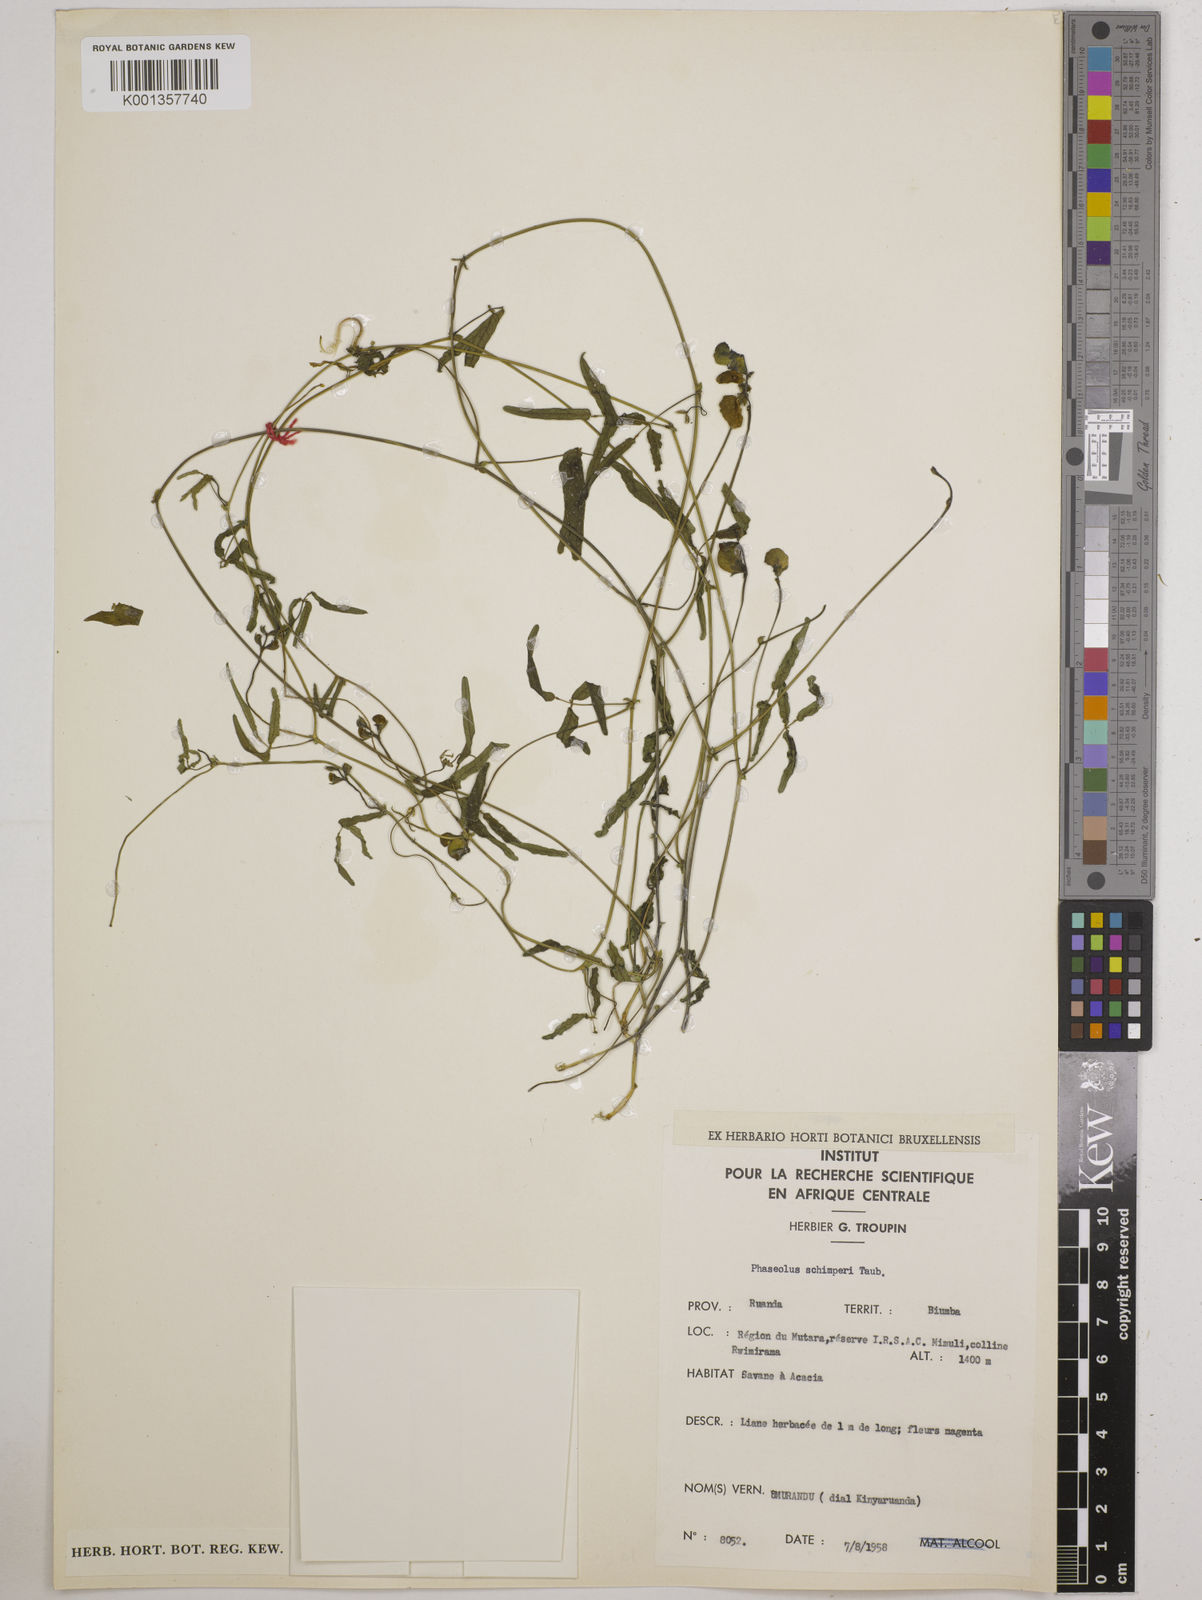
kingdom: Plantae
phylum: Tracheophyta
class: Magnoliopsida
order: Fabales
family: Fabaceae
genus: Wajira
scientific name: Wajira grahamiana
